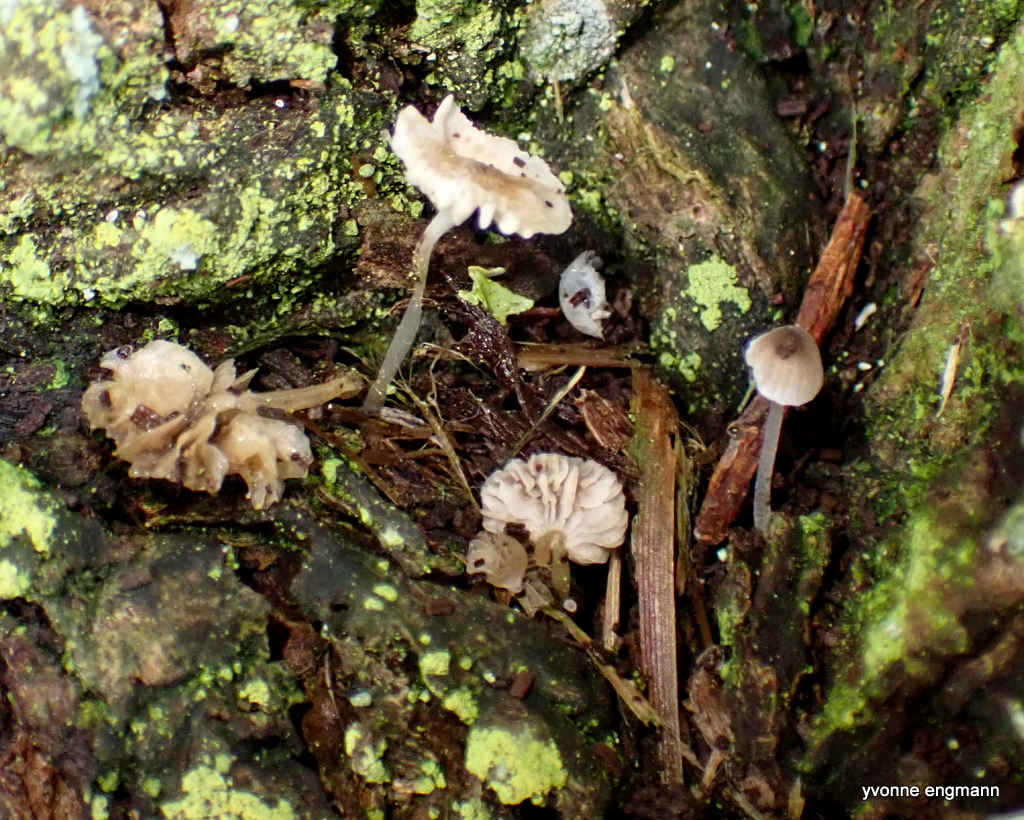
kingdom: Fungi
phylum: Basidiomycota
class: Agaricomycetes
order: Agaricales
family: Porotheleaceae
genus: Phloeomana
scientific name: Phloeomana
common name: huesvamp
